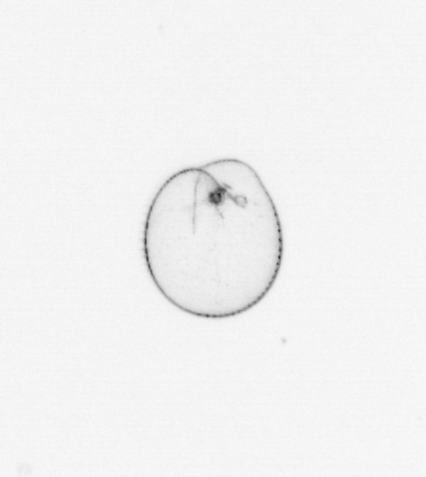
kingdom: Chromista
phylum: Myzozoa
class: Dinophyceae
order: Noctilucales
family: Noctilucaceae
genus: Noctiluca
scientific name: Noctiluca scintillans
